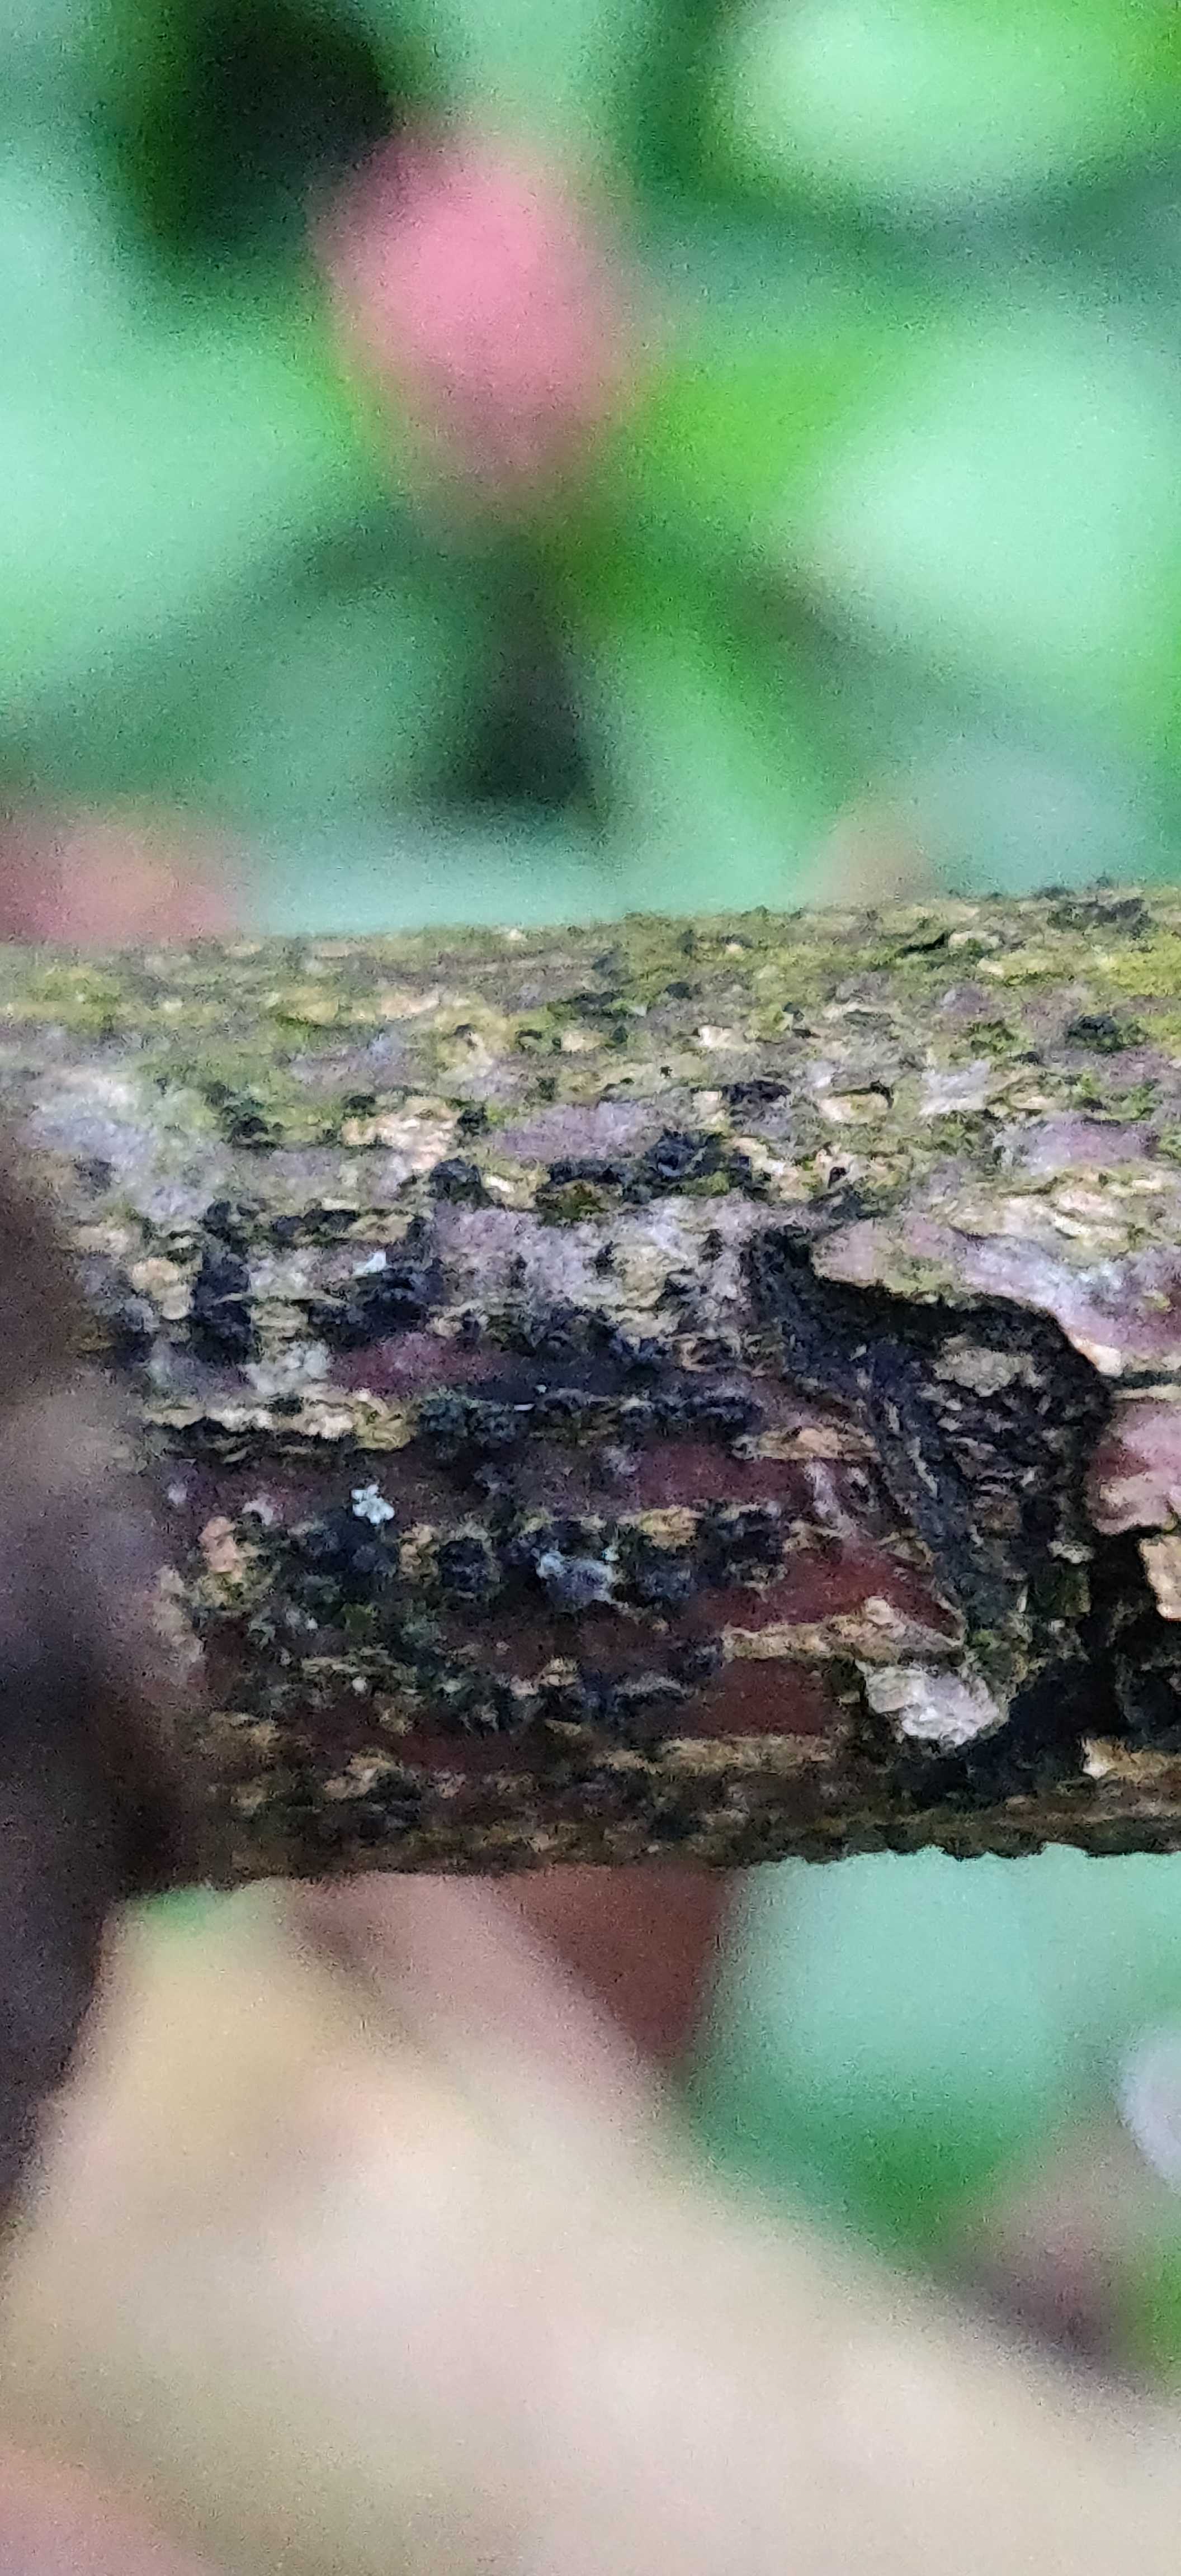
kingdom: Fungi
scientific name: Fungi
